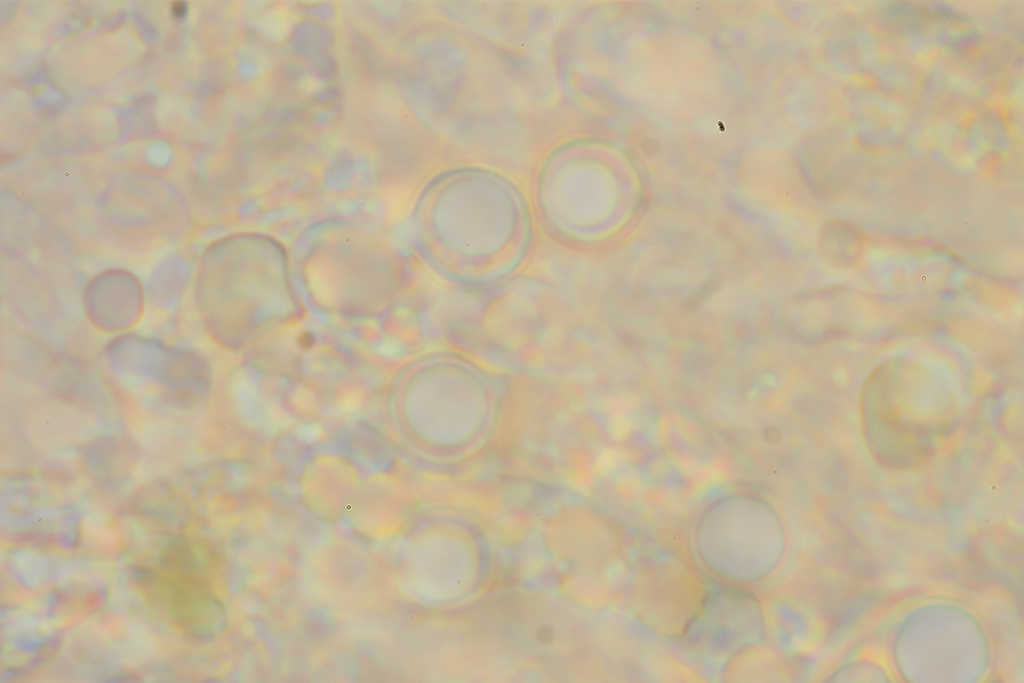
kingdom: Fungi
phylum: Basidiomycota
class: Agaricomycetes
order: Agaricales
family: Clavariaceae
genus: Clavulinopsis
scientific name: Clavulinopsis corniculata
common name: eng-køllesvamp
